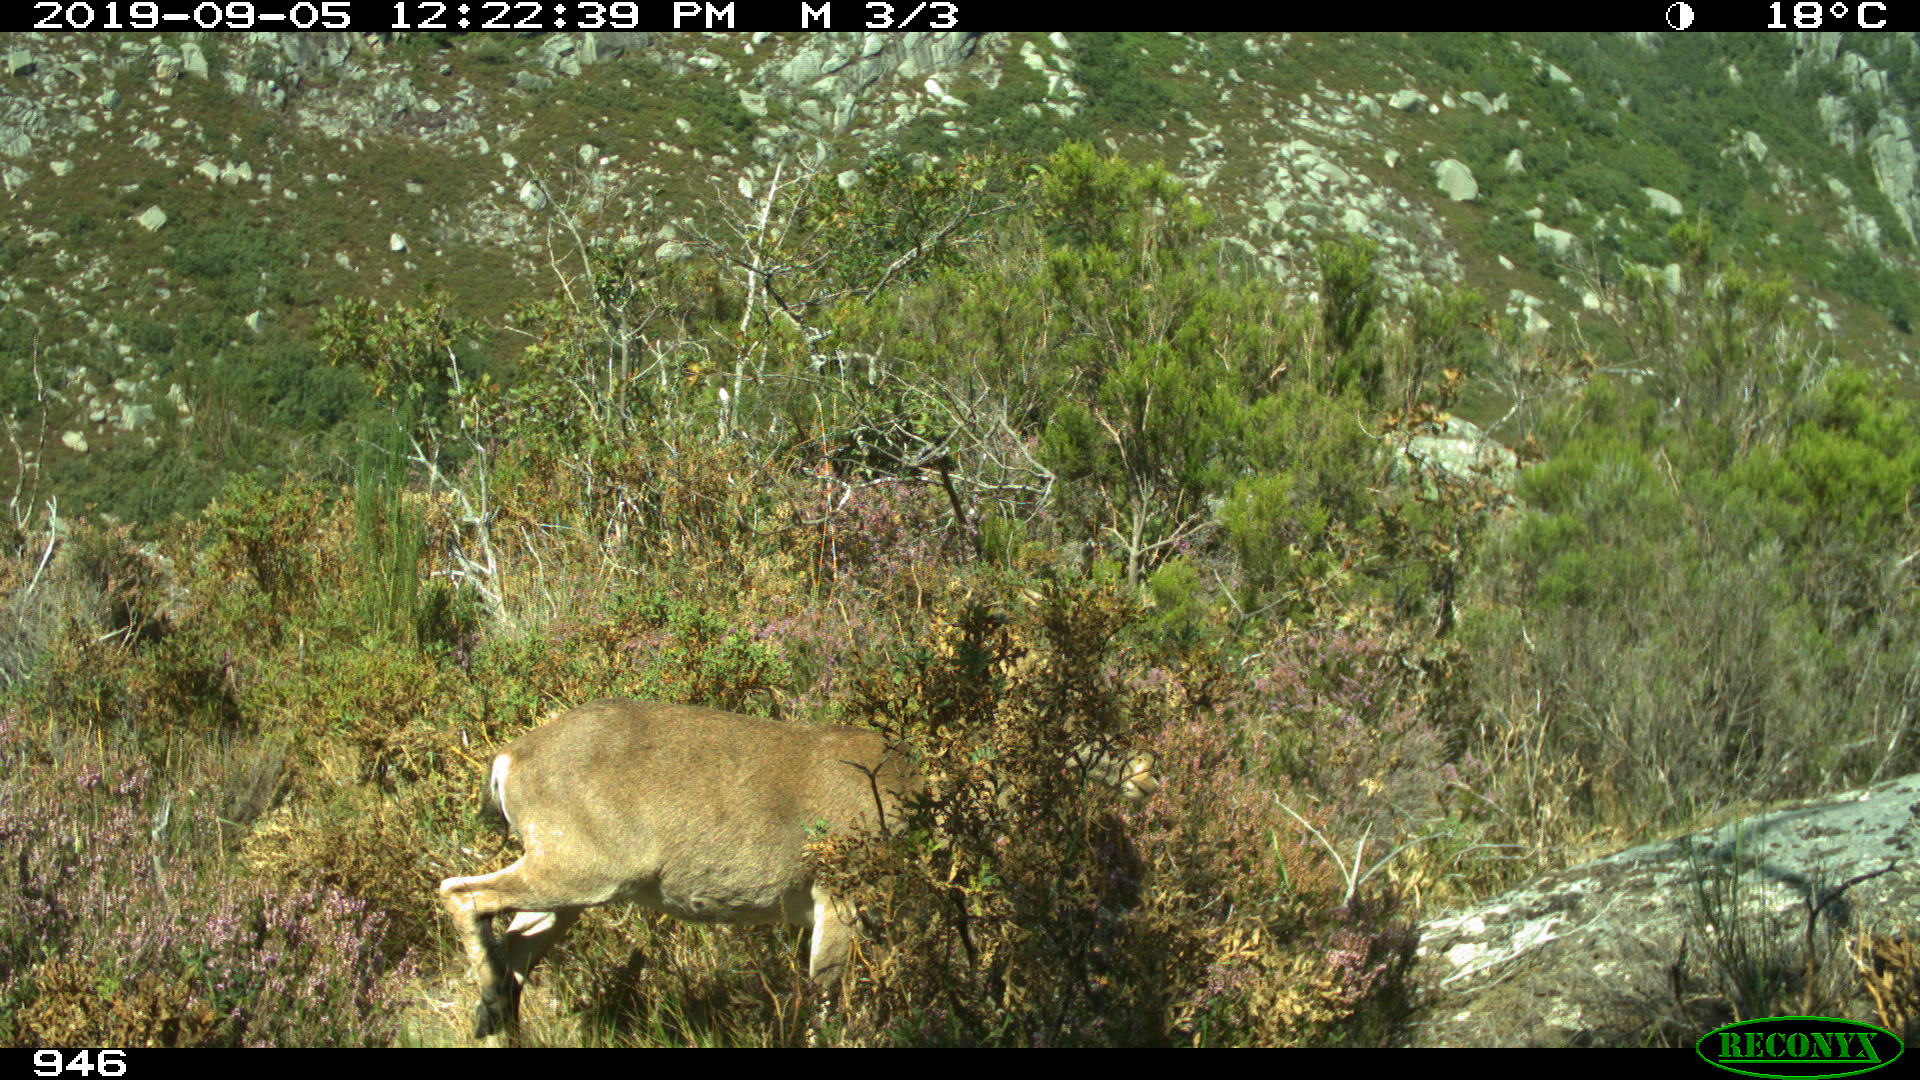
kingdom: Animalia
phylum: Chordata
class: Mammalia
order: Artiodactyla
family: Bovidae
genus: Capra
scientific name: Capra pyrenaica
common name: Spanish ibex
